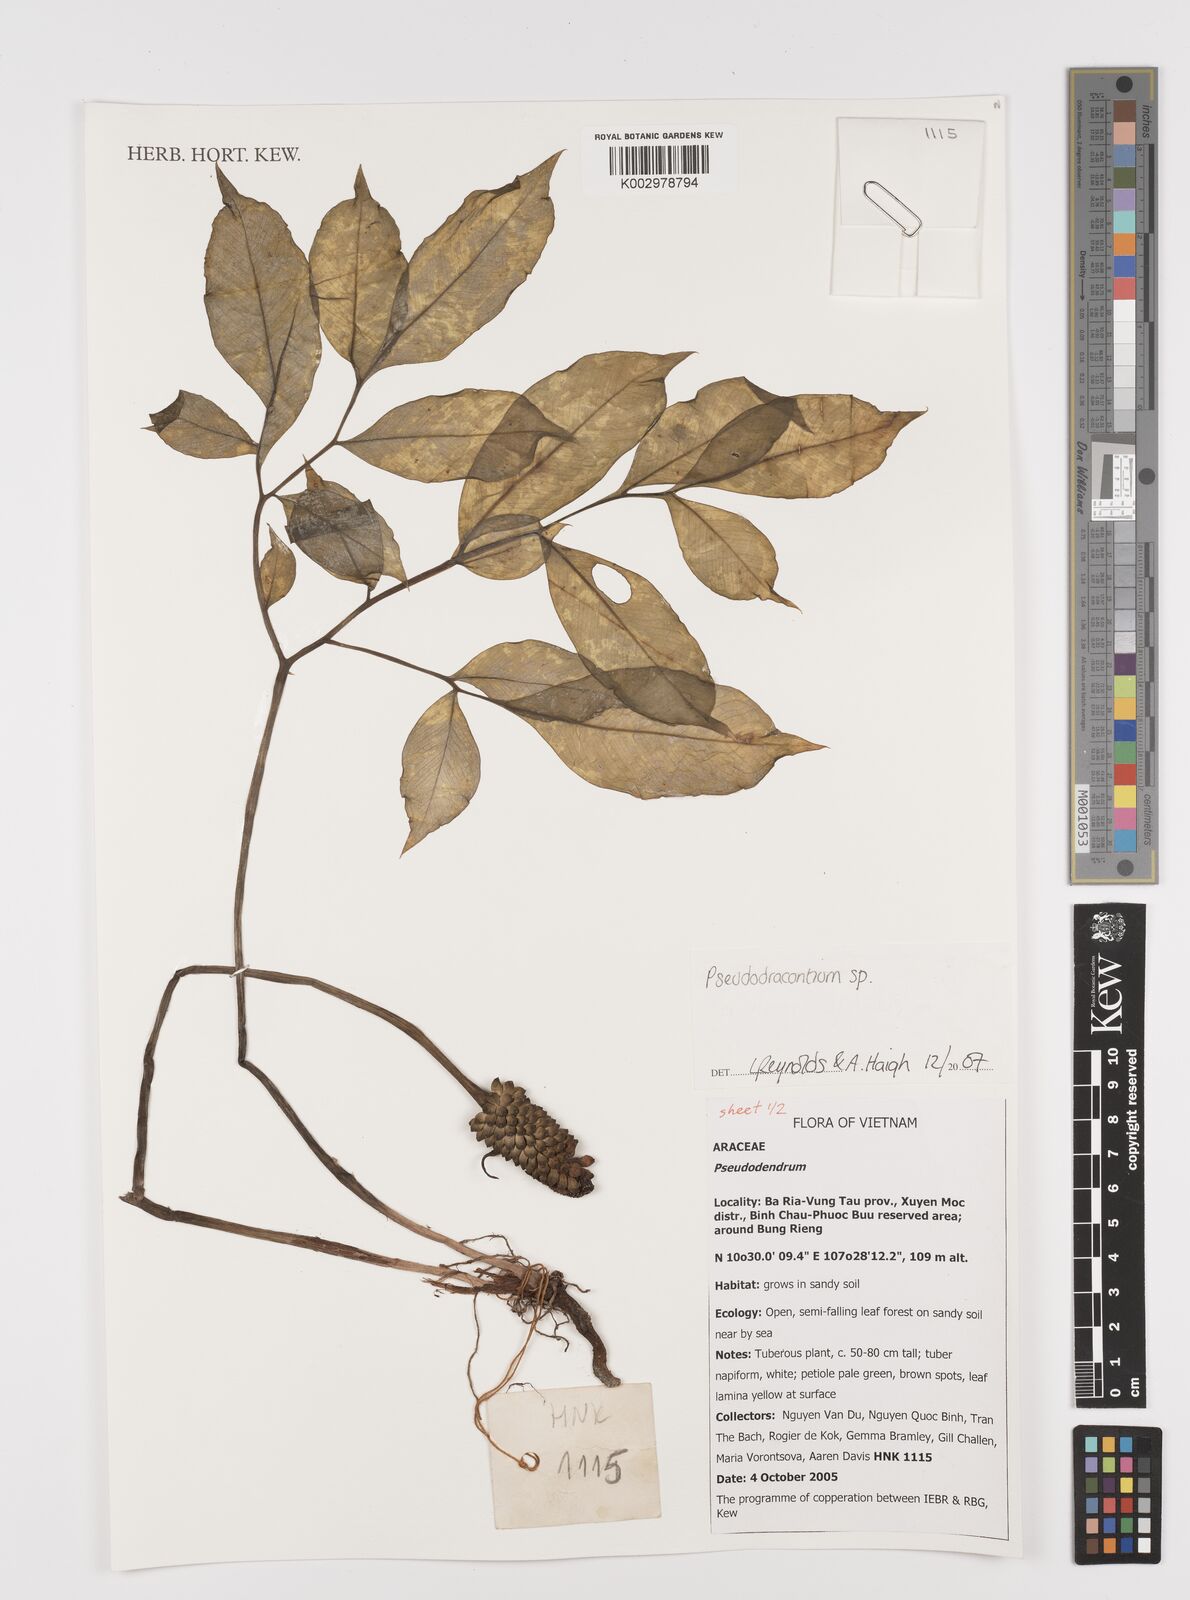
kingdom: Plantae
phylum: Tracheophyta
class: Liliopsida
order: Alismatales
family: Araceae
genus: Amorphophallus
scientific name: Amorphophallus
